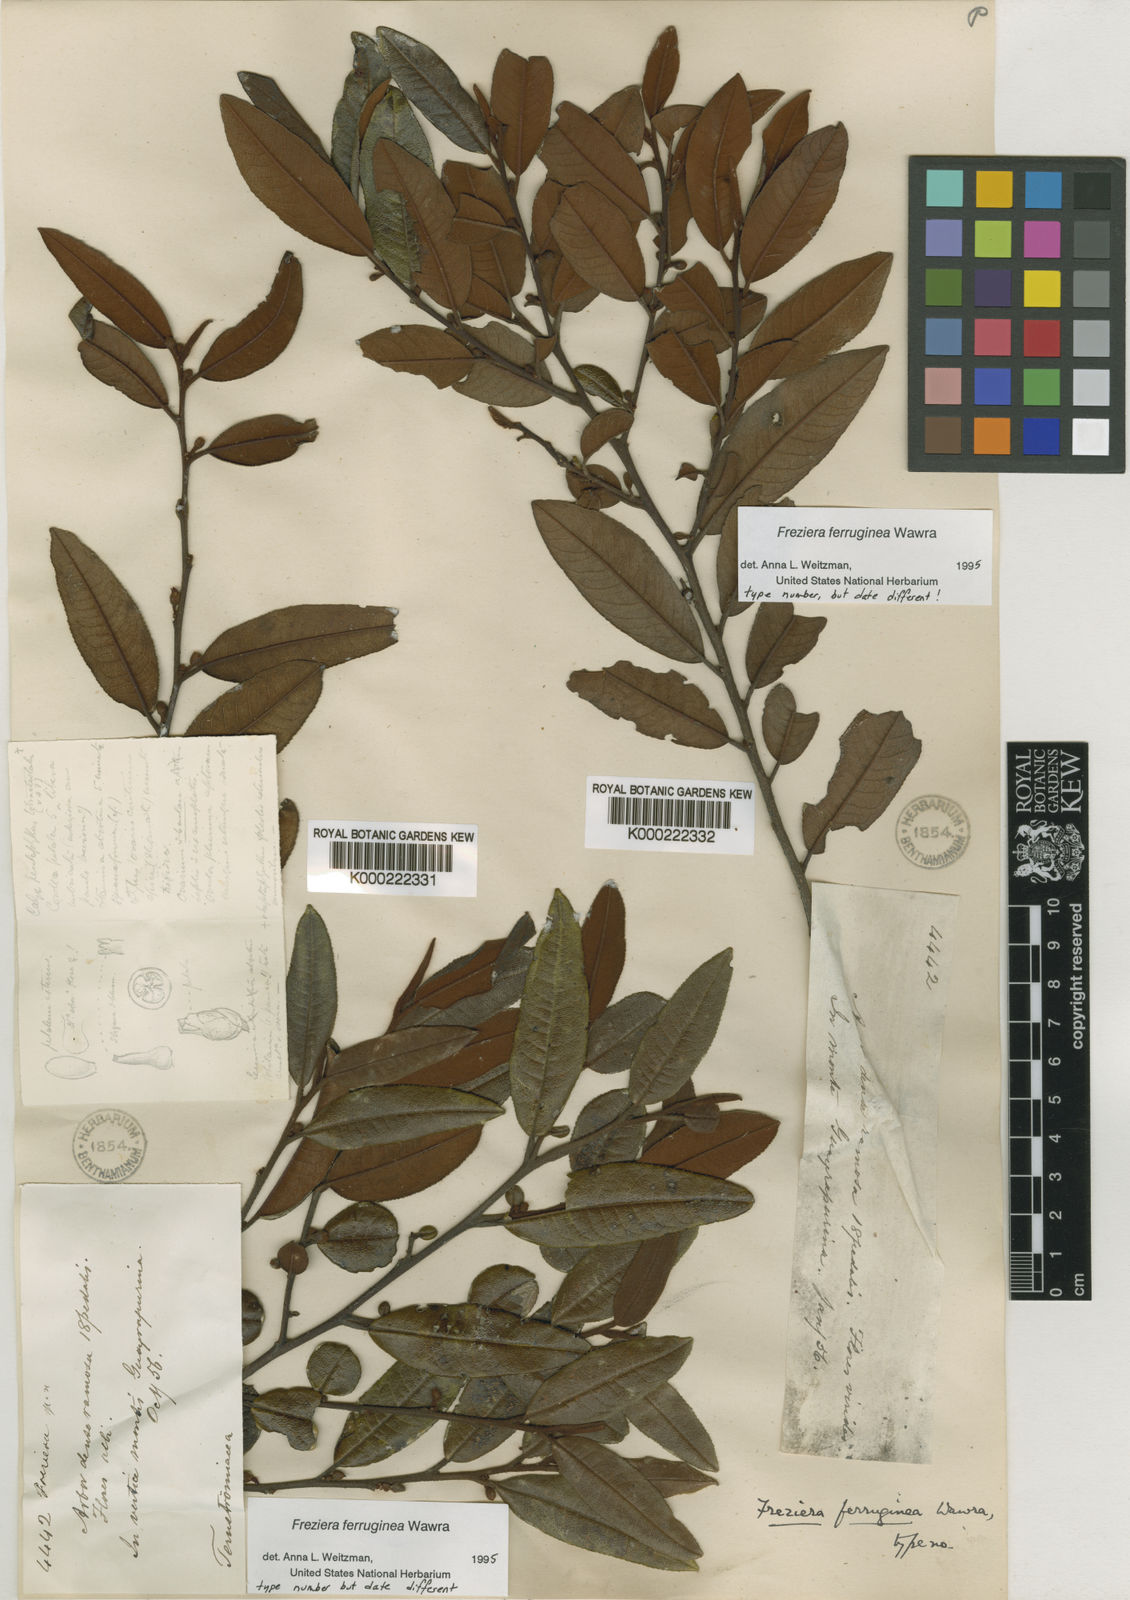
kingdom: Plantae
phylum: Tracheophyta
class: Magnoliopsida
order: Ericales
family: Pentaphylacaceae
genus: Freziera
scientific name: Freziera ferruginea
